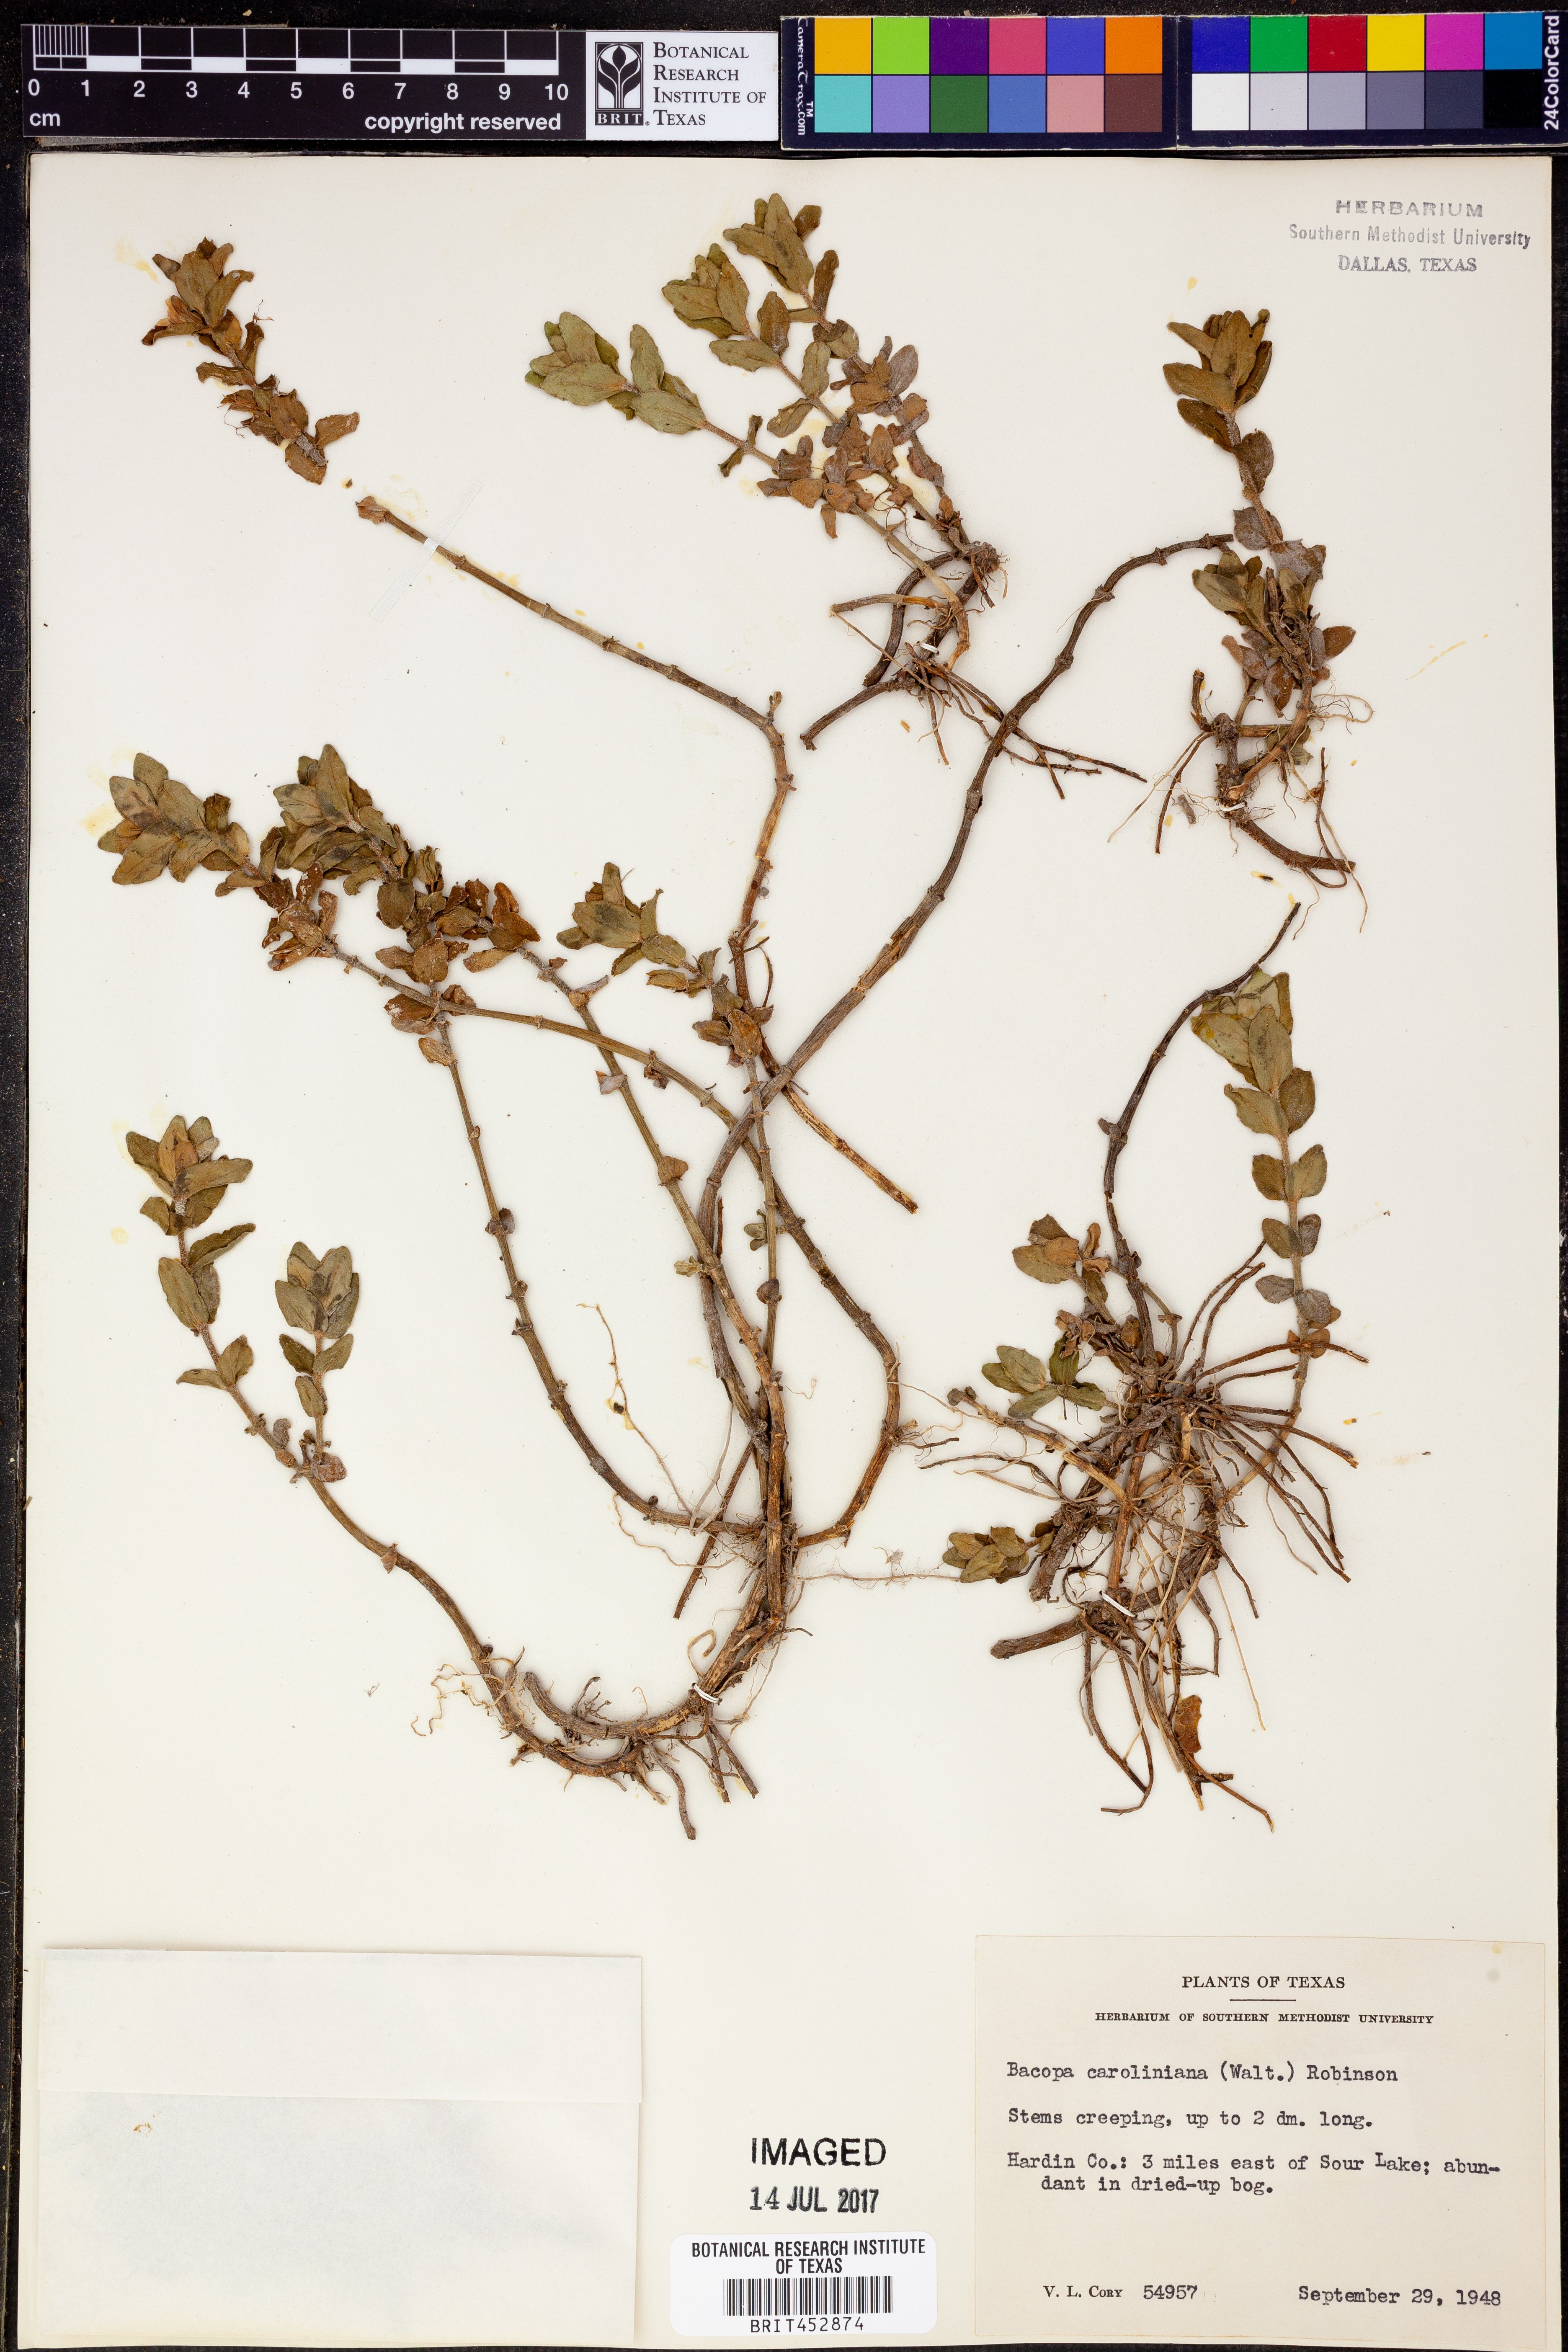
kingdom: Plantae
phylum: Tracheophyta
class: Magnoliopsida
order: Lamiales
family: Plantaginaceae
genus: Bacopa
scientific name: Bacopa caroliniana
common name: Lemon bacopa
